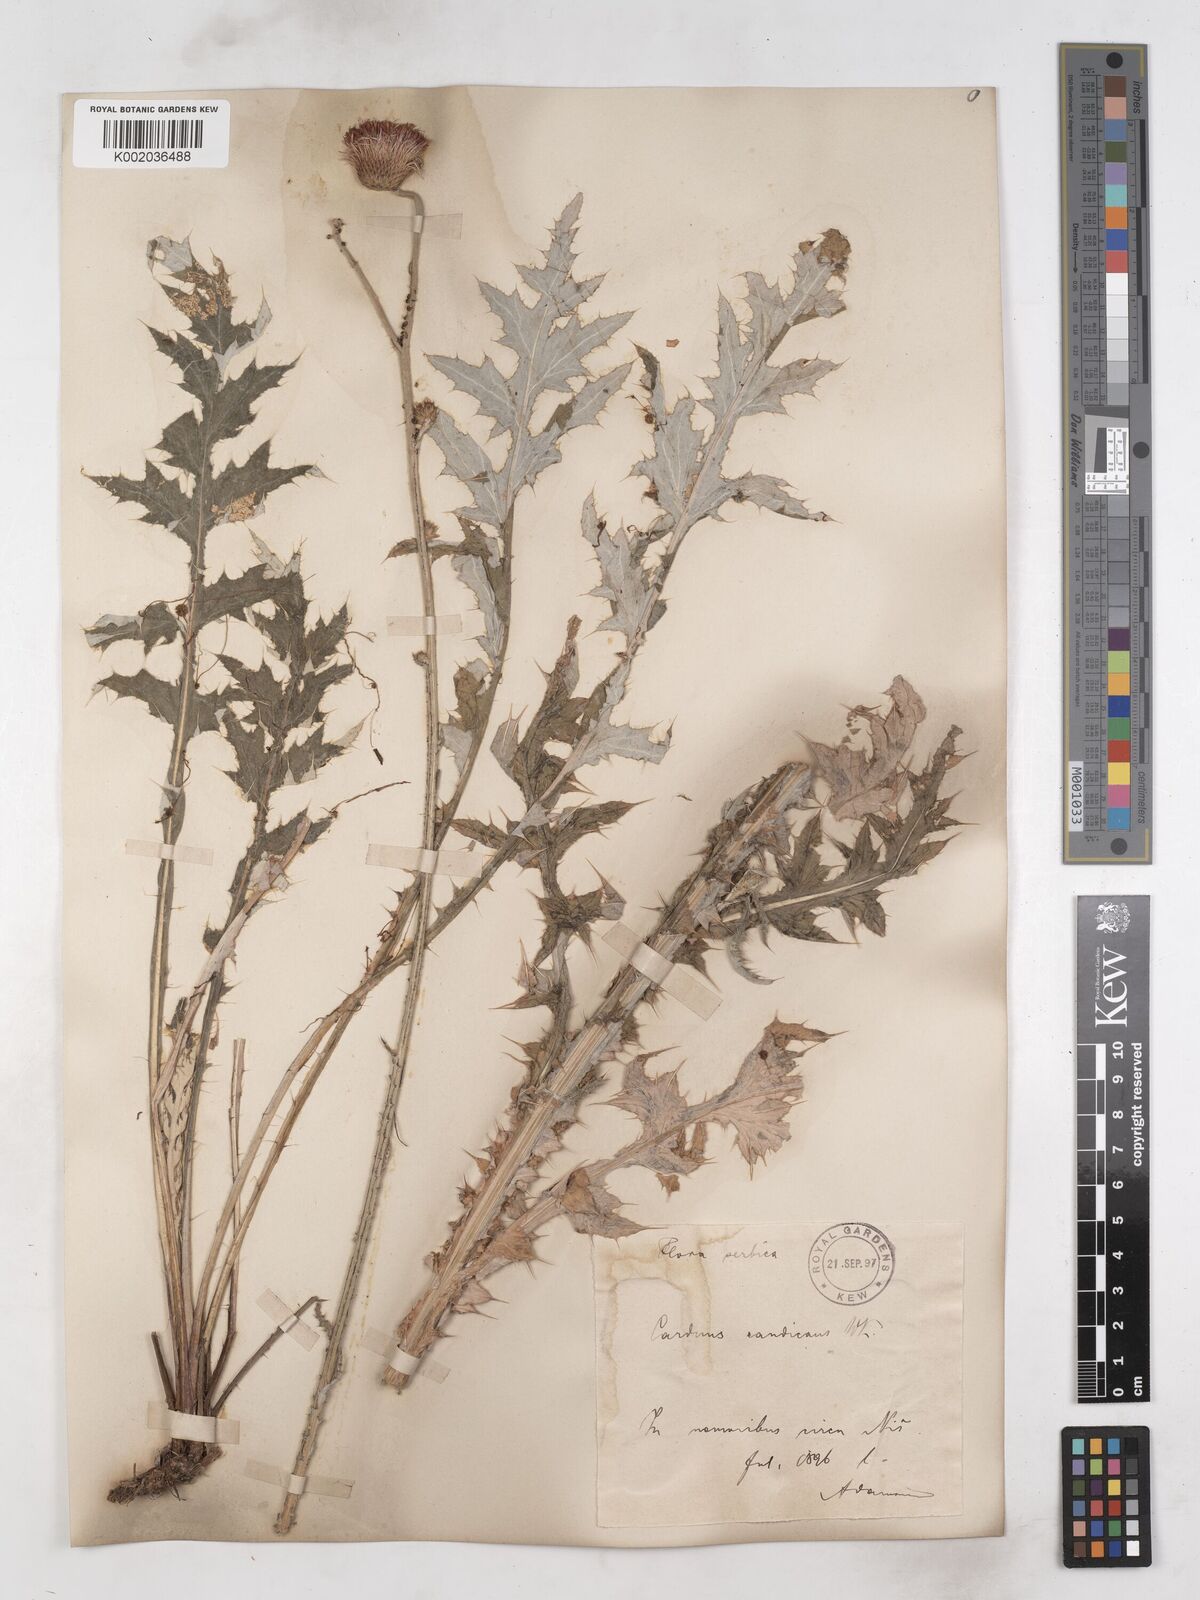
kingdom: Plantae
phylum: Tracheophyta
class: Magnoliopsida
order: Asterales
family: Asteraceae
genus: Carduus
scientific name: Carduus candicans
